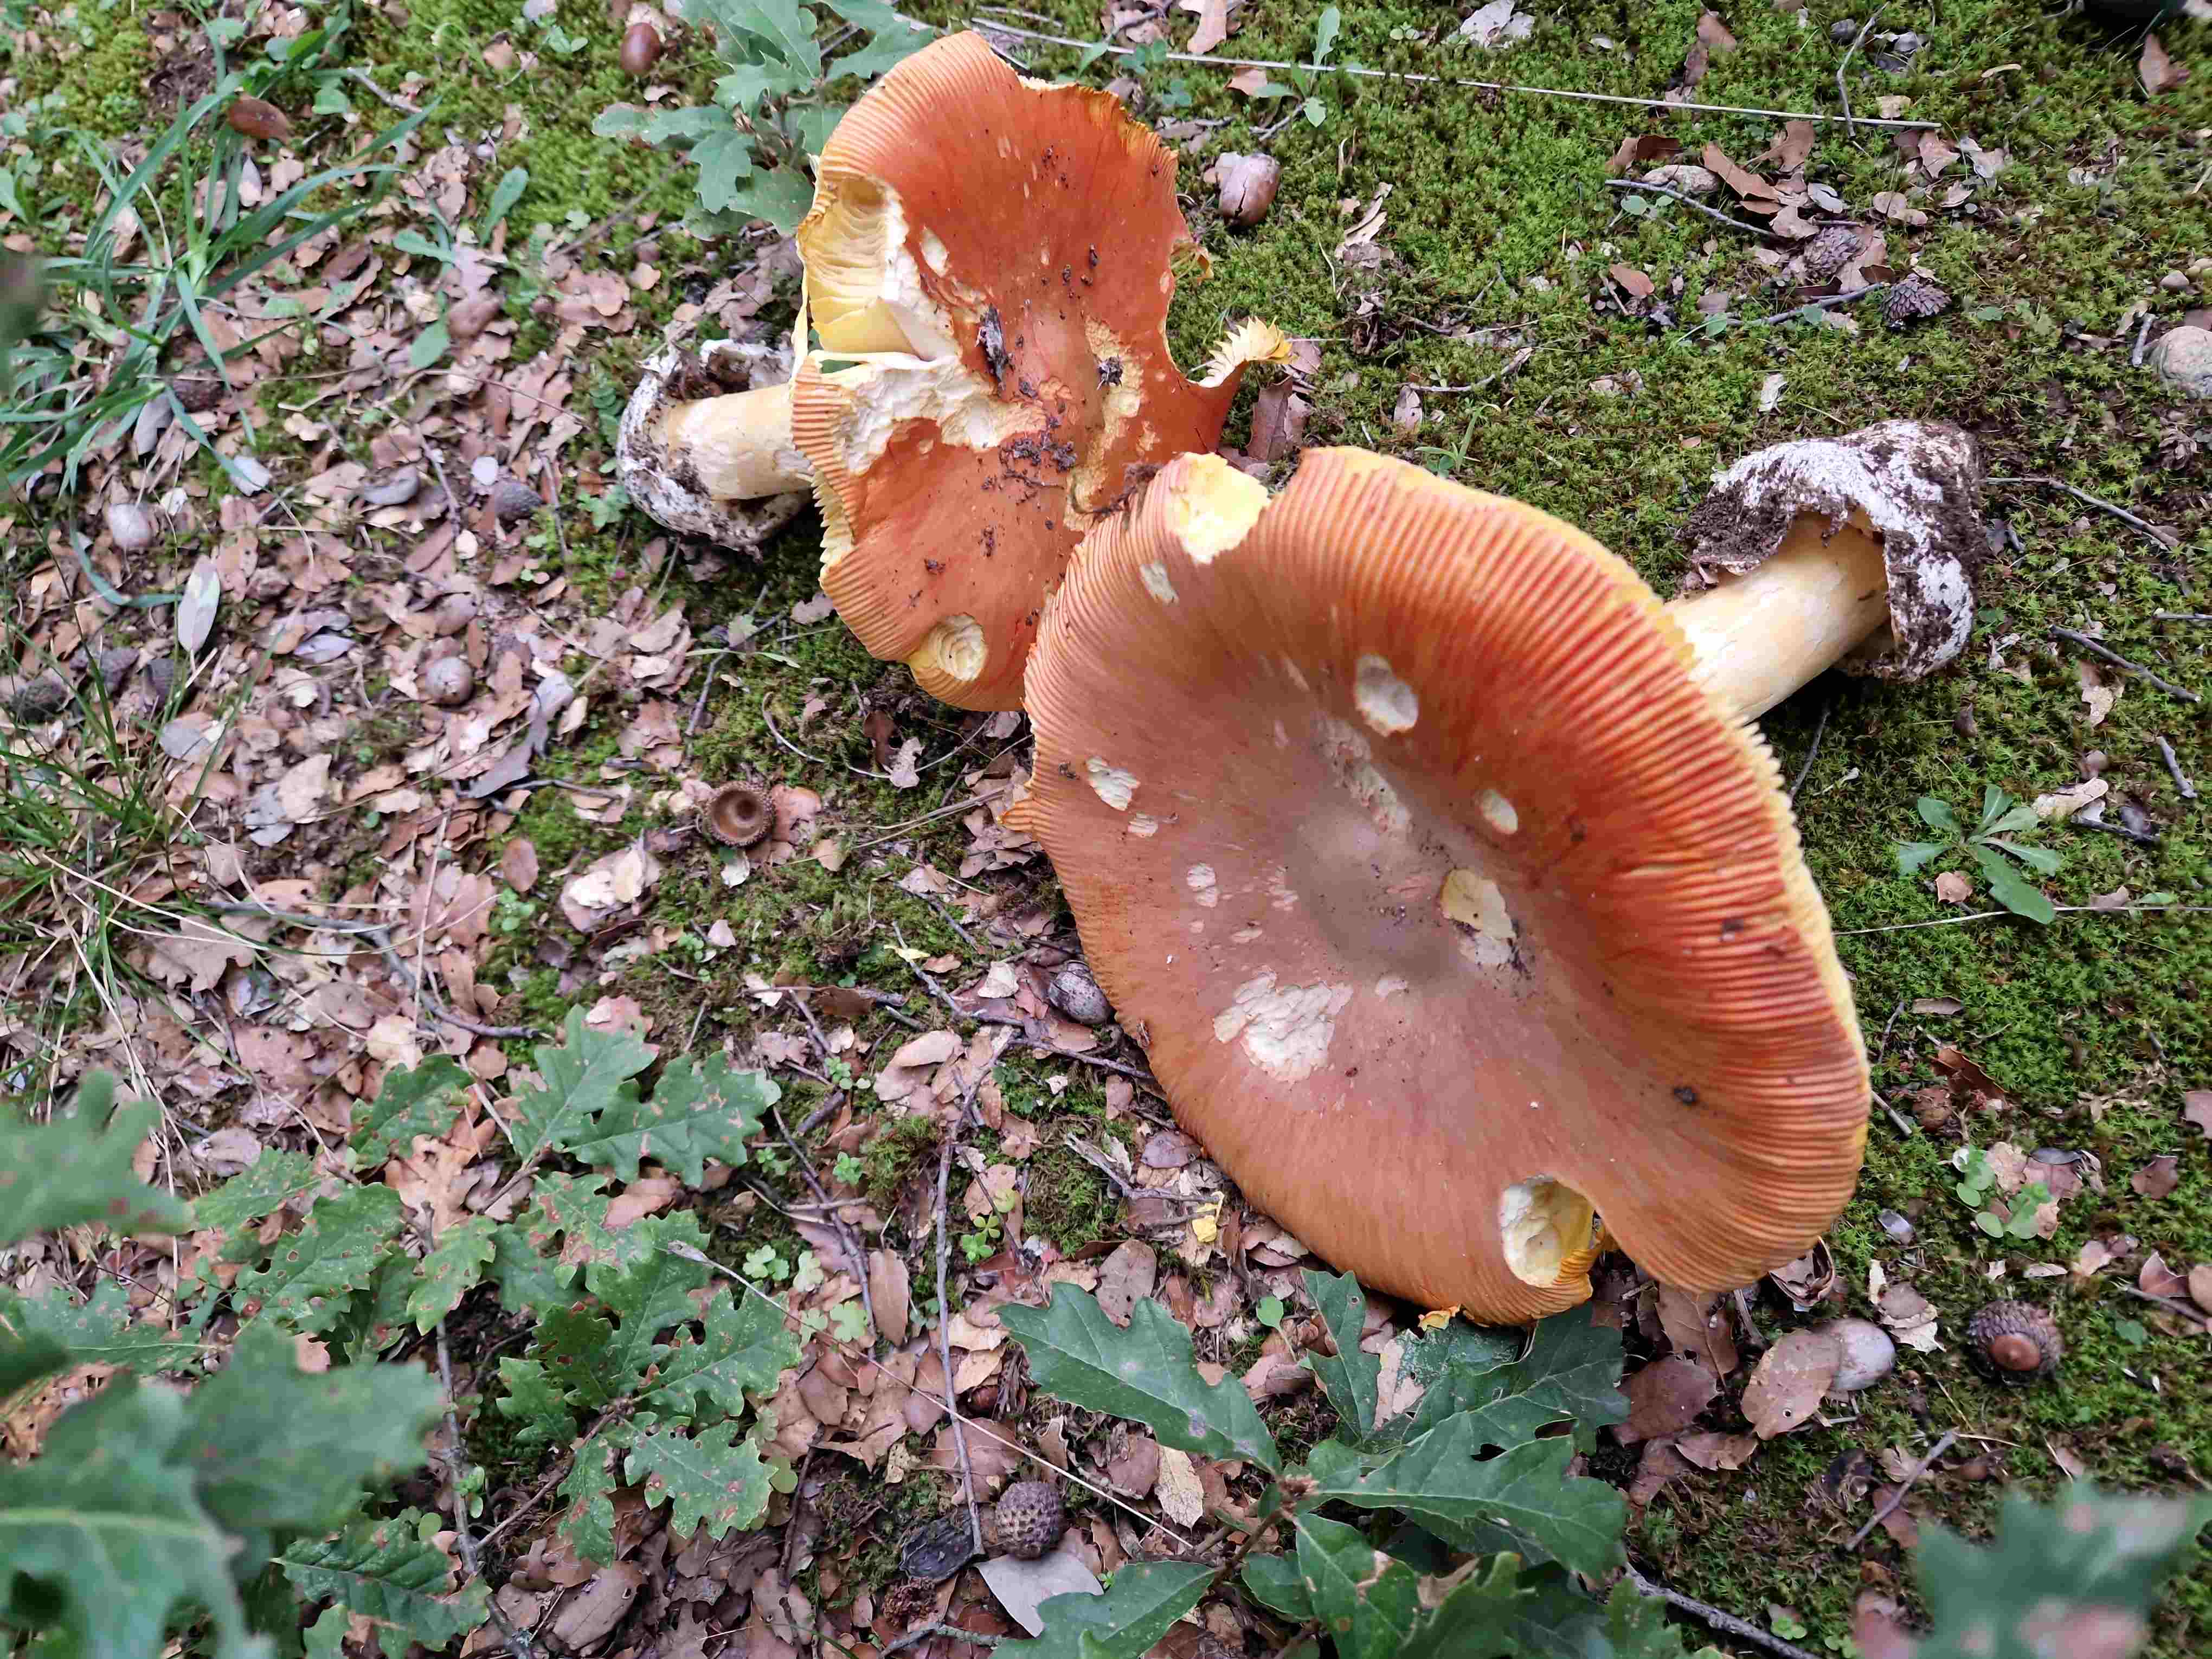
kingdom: Fungi
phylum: Basidiomycota
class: Agaricomycetes
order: Agaricales
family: Amanitaceae
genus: Amanita
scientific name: Amanita caesarea
